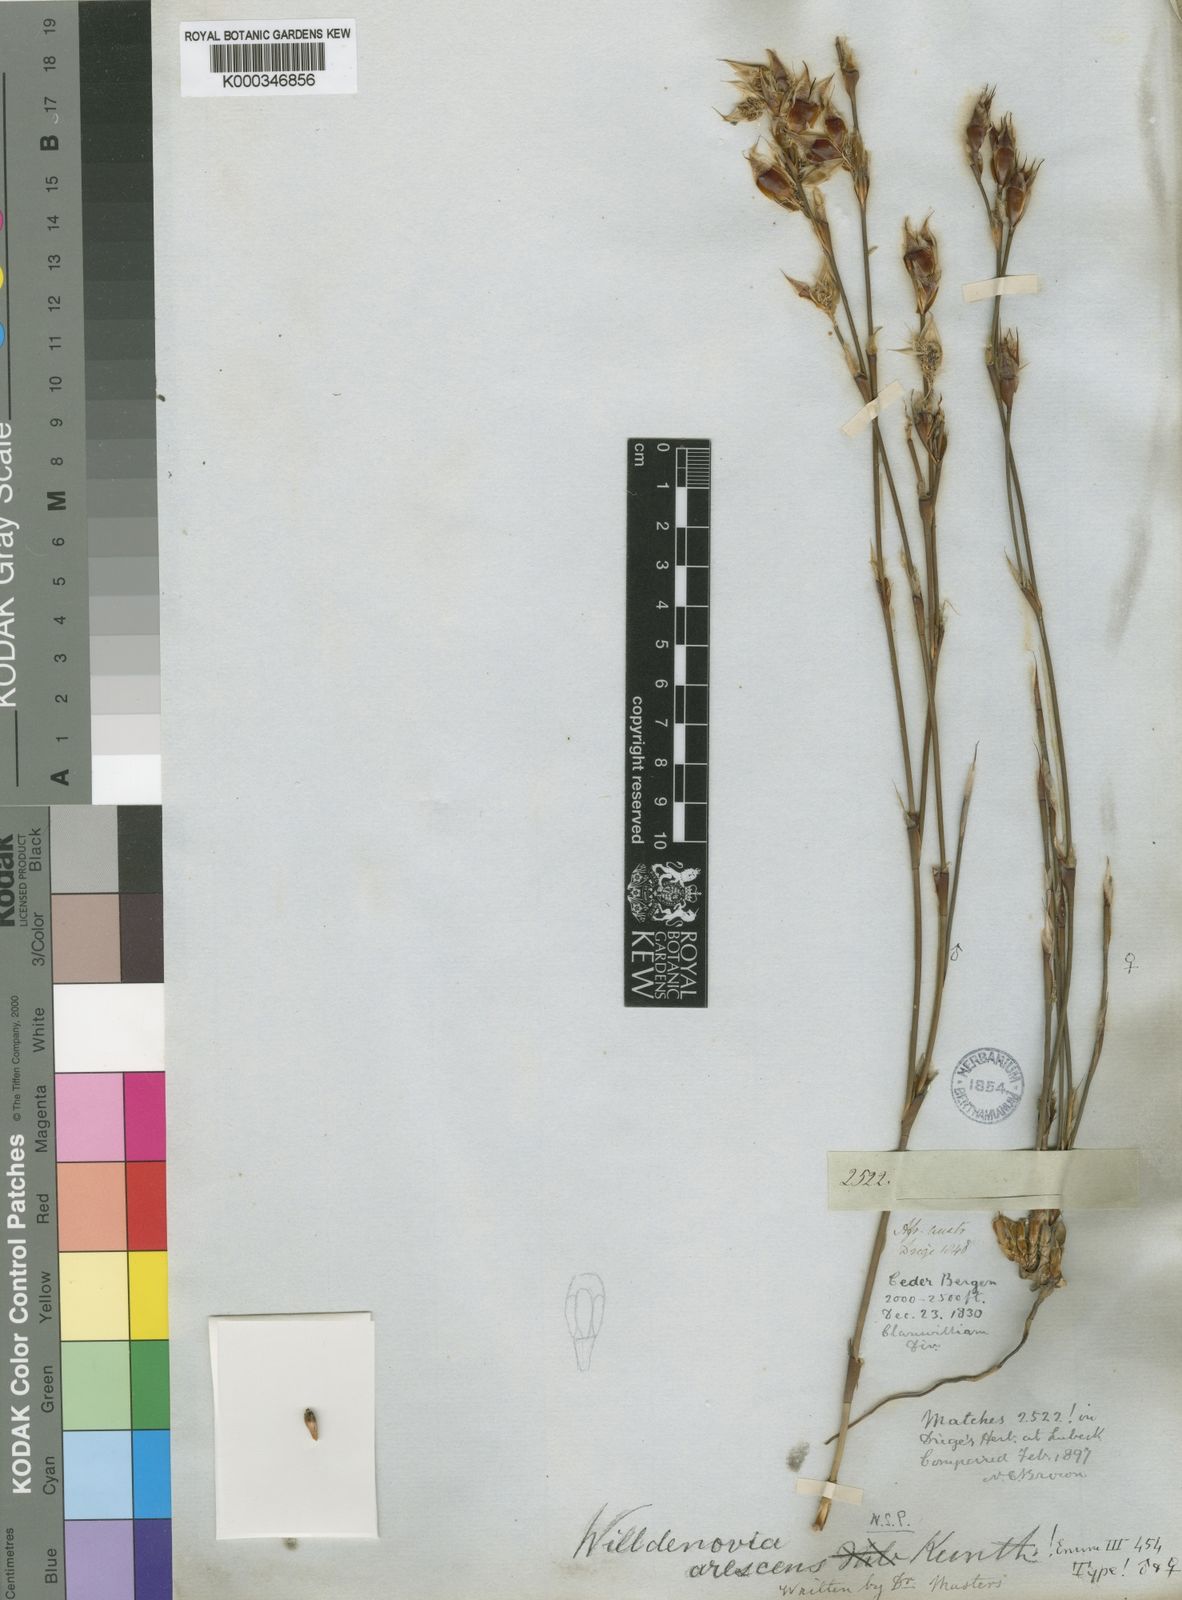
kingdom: Plantae
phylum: Tracheophyta
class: Liliopsida
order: Poales
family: Restionaceae
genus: Willdenowia
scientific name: Willdenowia arescens
